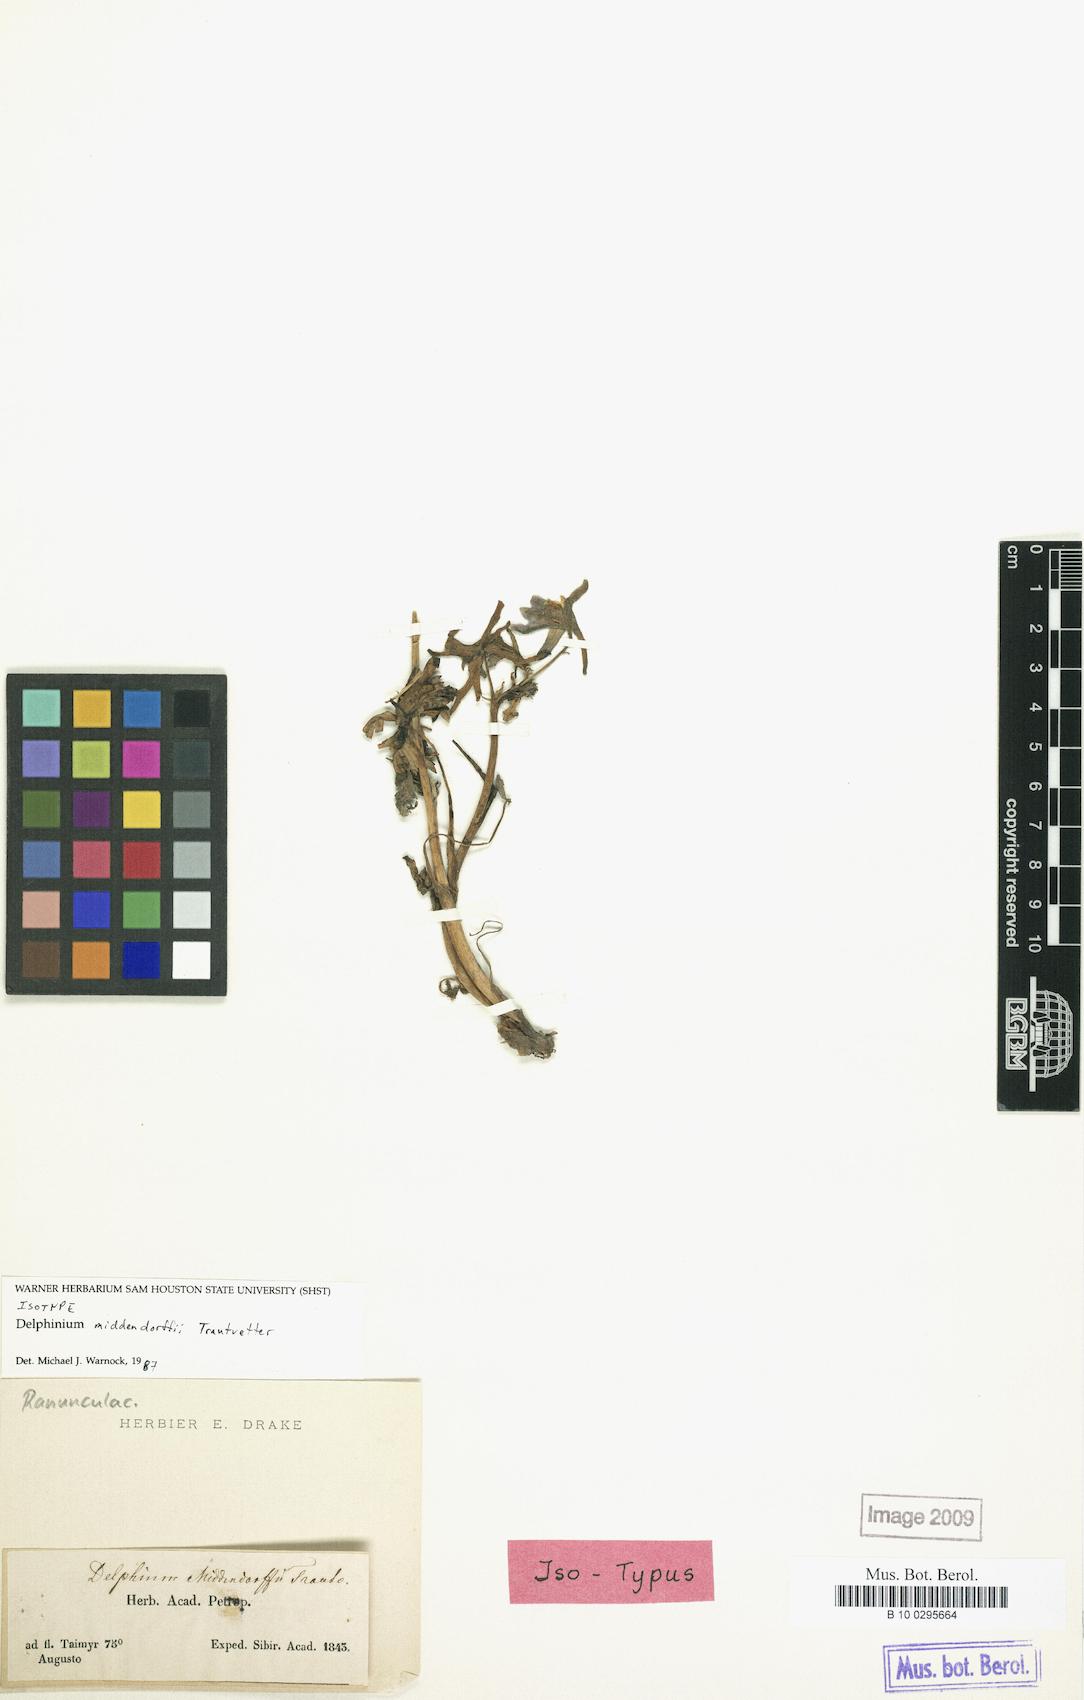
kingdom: Plantae
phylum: Tracheophyta
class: Magnoliopsida
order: Ranunculales
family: Ranunculaceae
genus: Delphinium
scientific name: Delphinium cheilanthum
